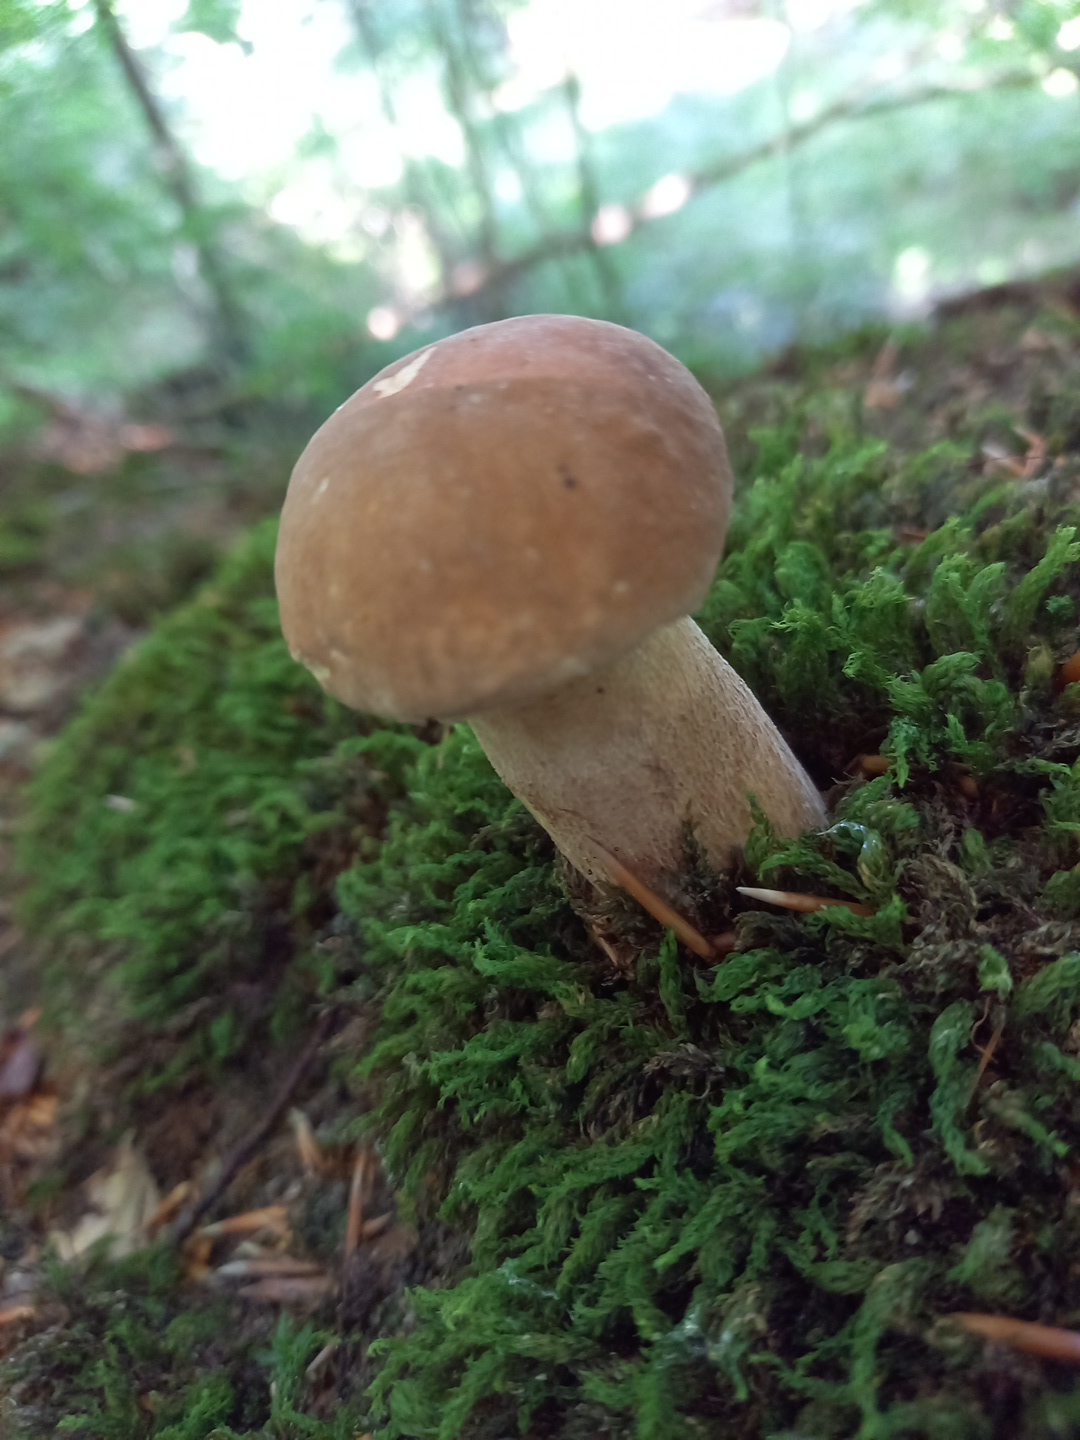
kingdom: Fungi
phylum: Basidiomycota
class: Agaricomycetes
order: Boletales
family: Boletaceae
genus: Boletus
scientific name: Boletus reticulatus
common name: sommer-rørhat
